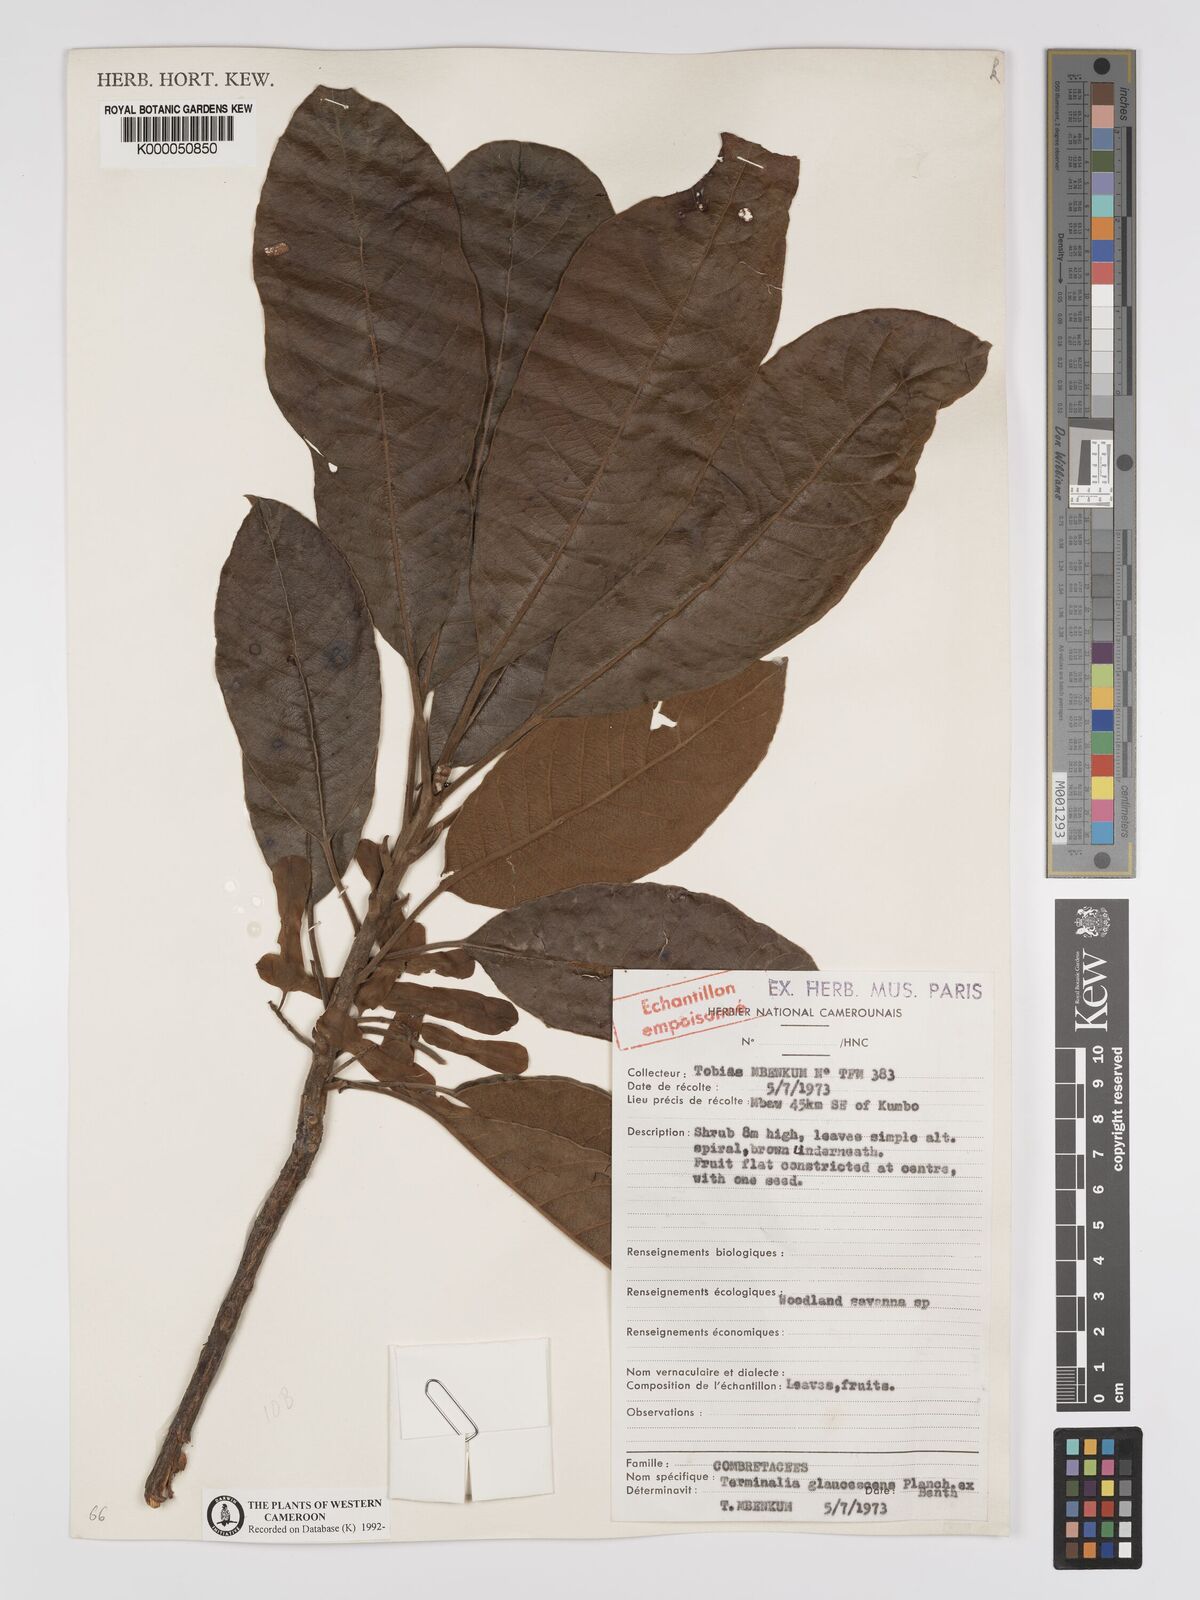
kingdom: Plantae
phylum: Tracheophyta
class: Magnoliopsida
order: Myrtales
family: Combretaceae
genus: Terminalia
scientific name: Terminalia schimperiana
